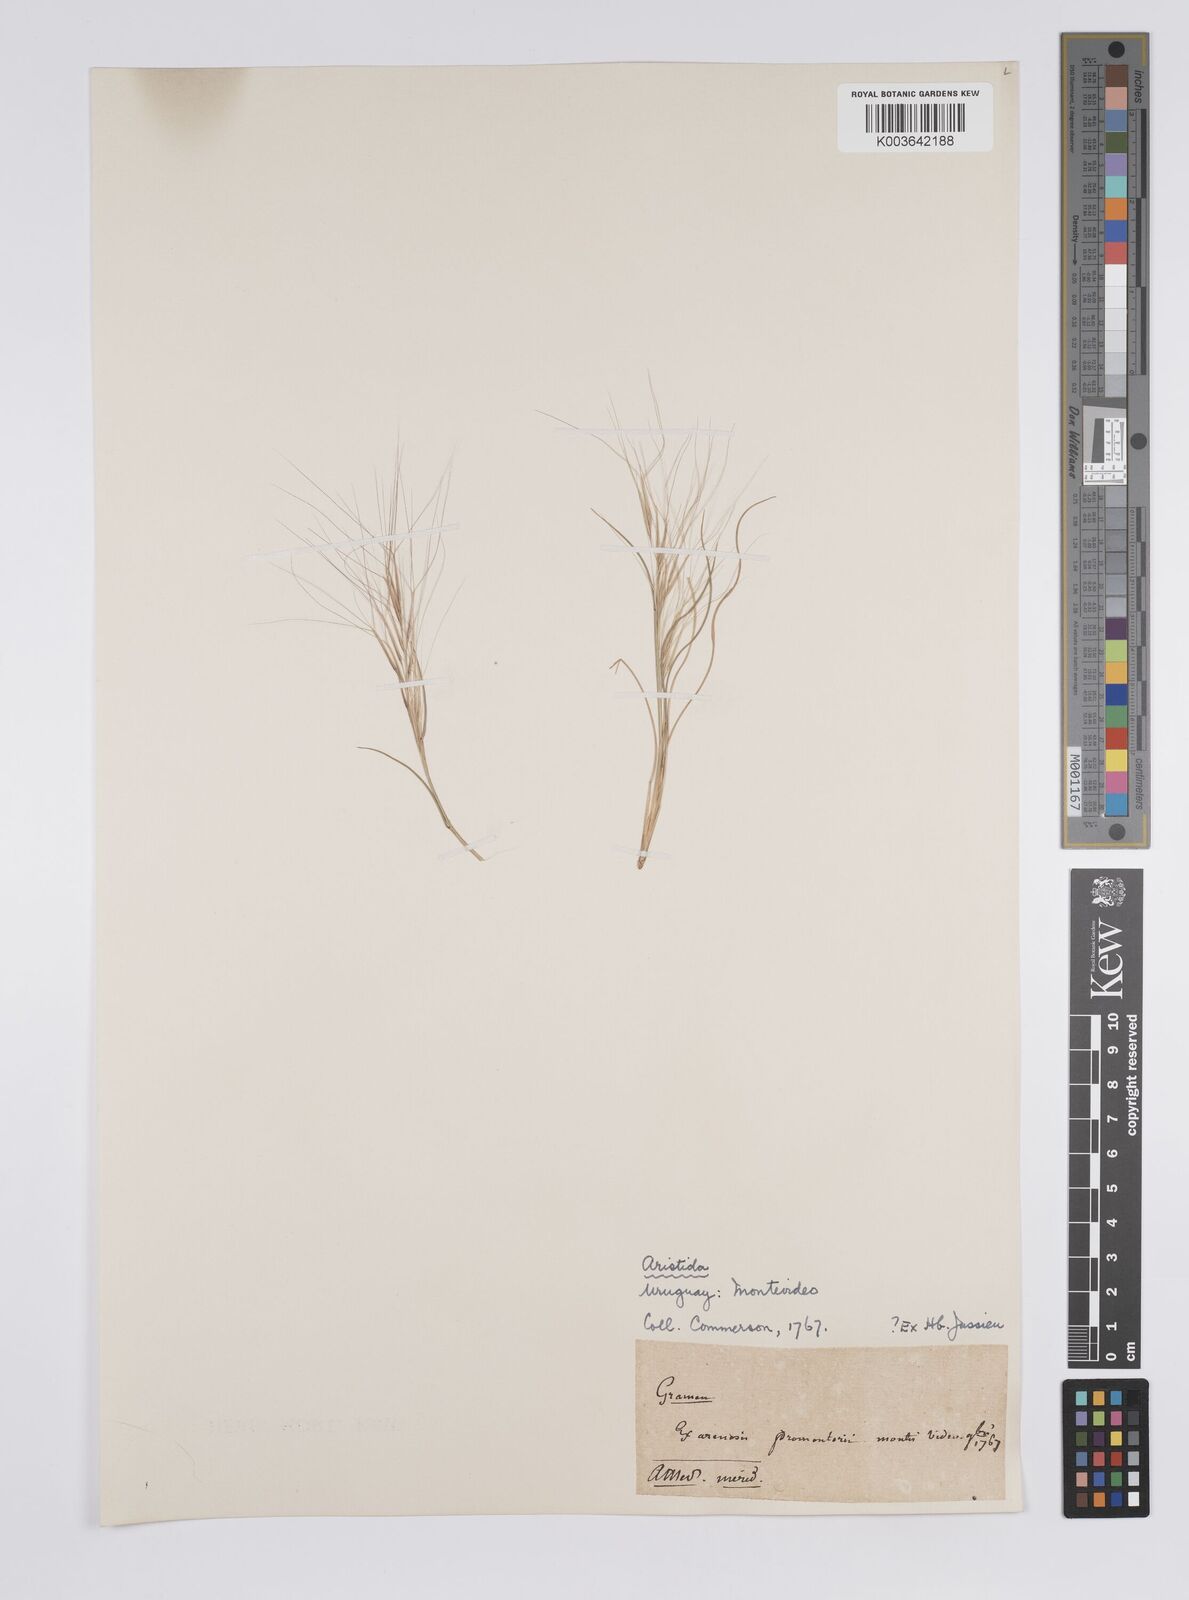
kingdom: Plantae
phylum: Tracheophyta
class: Liliopsida
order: Poales
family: Poaceae
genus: Aristida
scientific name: Aristida
